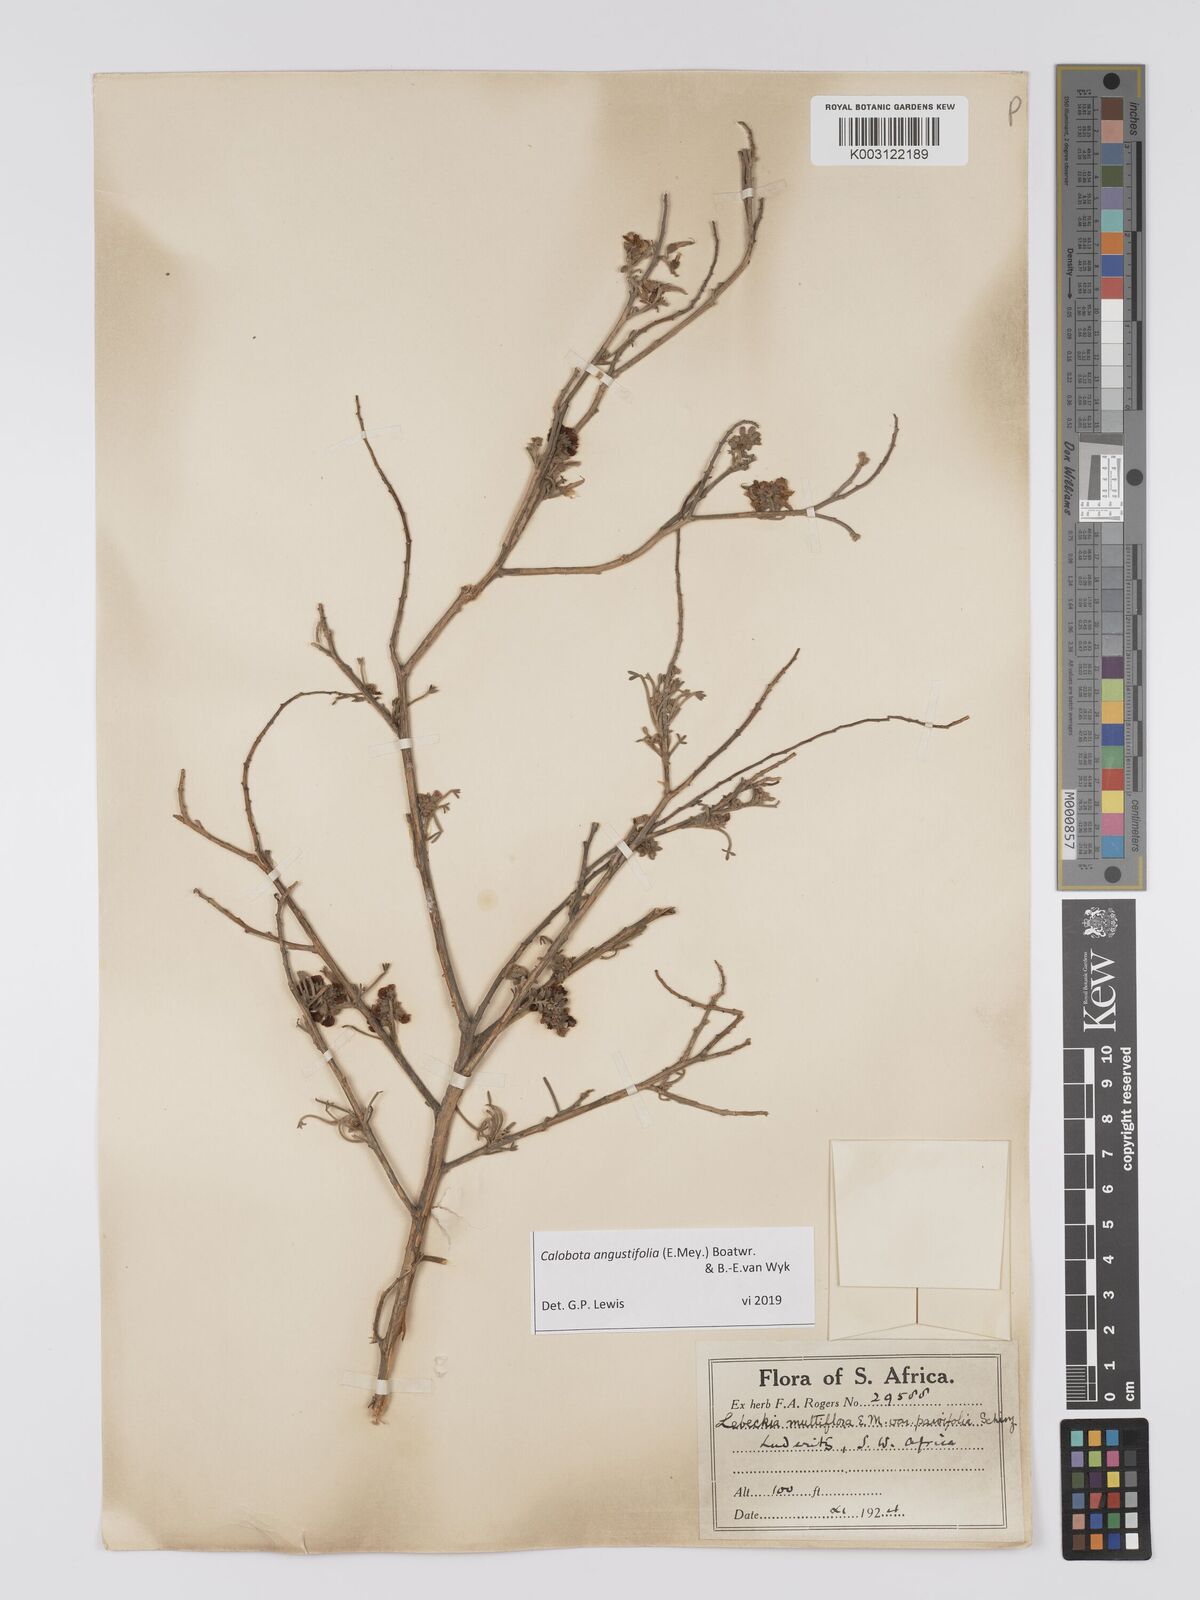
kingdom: Plantae
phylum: Tracheophyta
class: Magnoliopsida
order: Fabales
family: Fabaceae
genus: Calobota
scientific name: Calobota angustifolia
